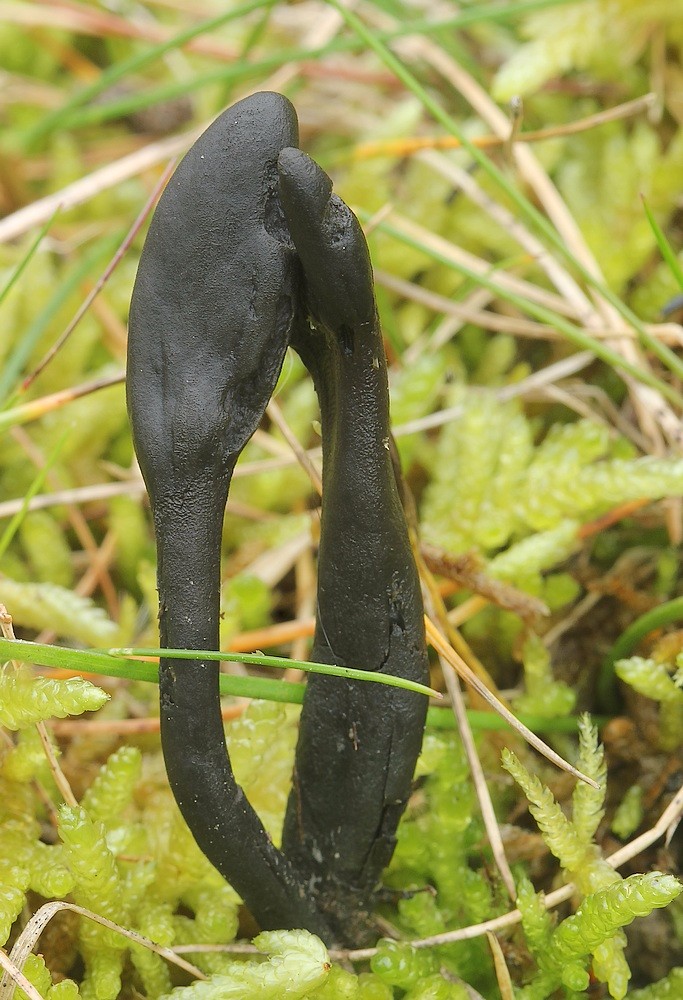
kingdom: Fungi
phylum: Ascomycota
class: Geoglossomycetes
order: Geoglossales
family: Geoglossaceae
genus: Geoglossum
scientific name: Geoglossum cookeianum
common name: bred jordtunge
